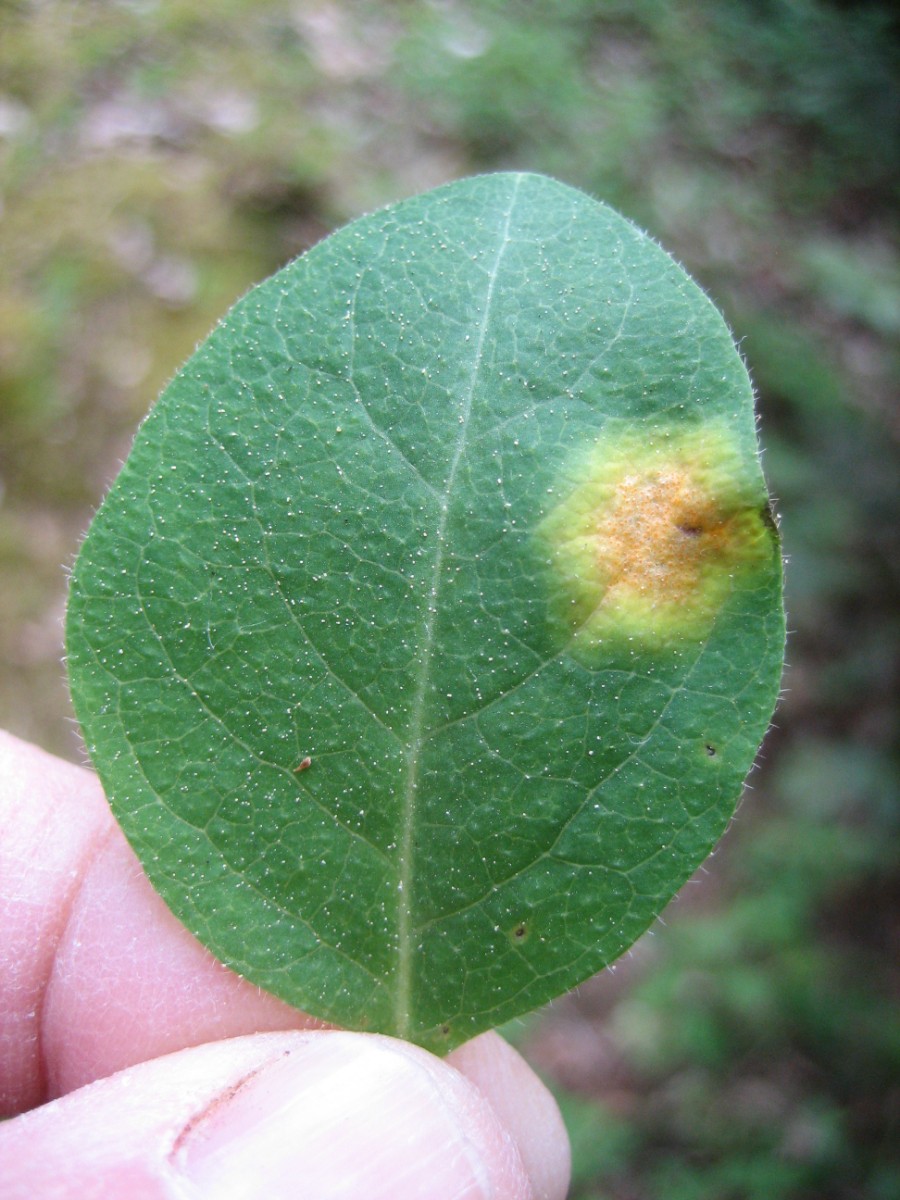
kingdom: Fungi
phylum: Basidiomycota
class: Pucciniomycetes
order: Pucciniales
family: Pucciniaceae
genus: Puccinia
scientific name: Puccinia festucae
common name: gedeblad-tvecellerust
